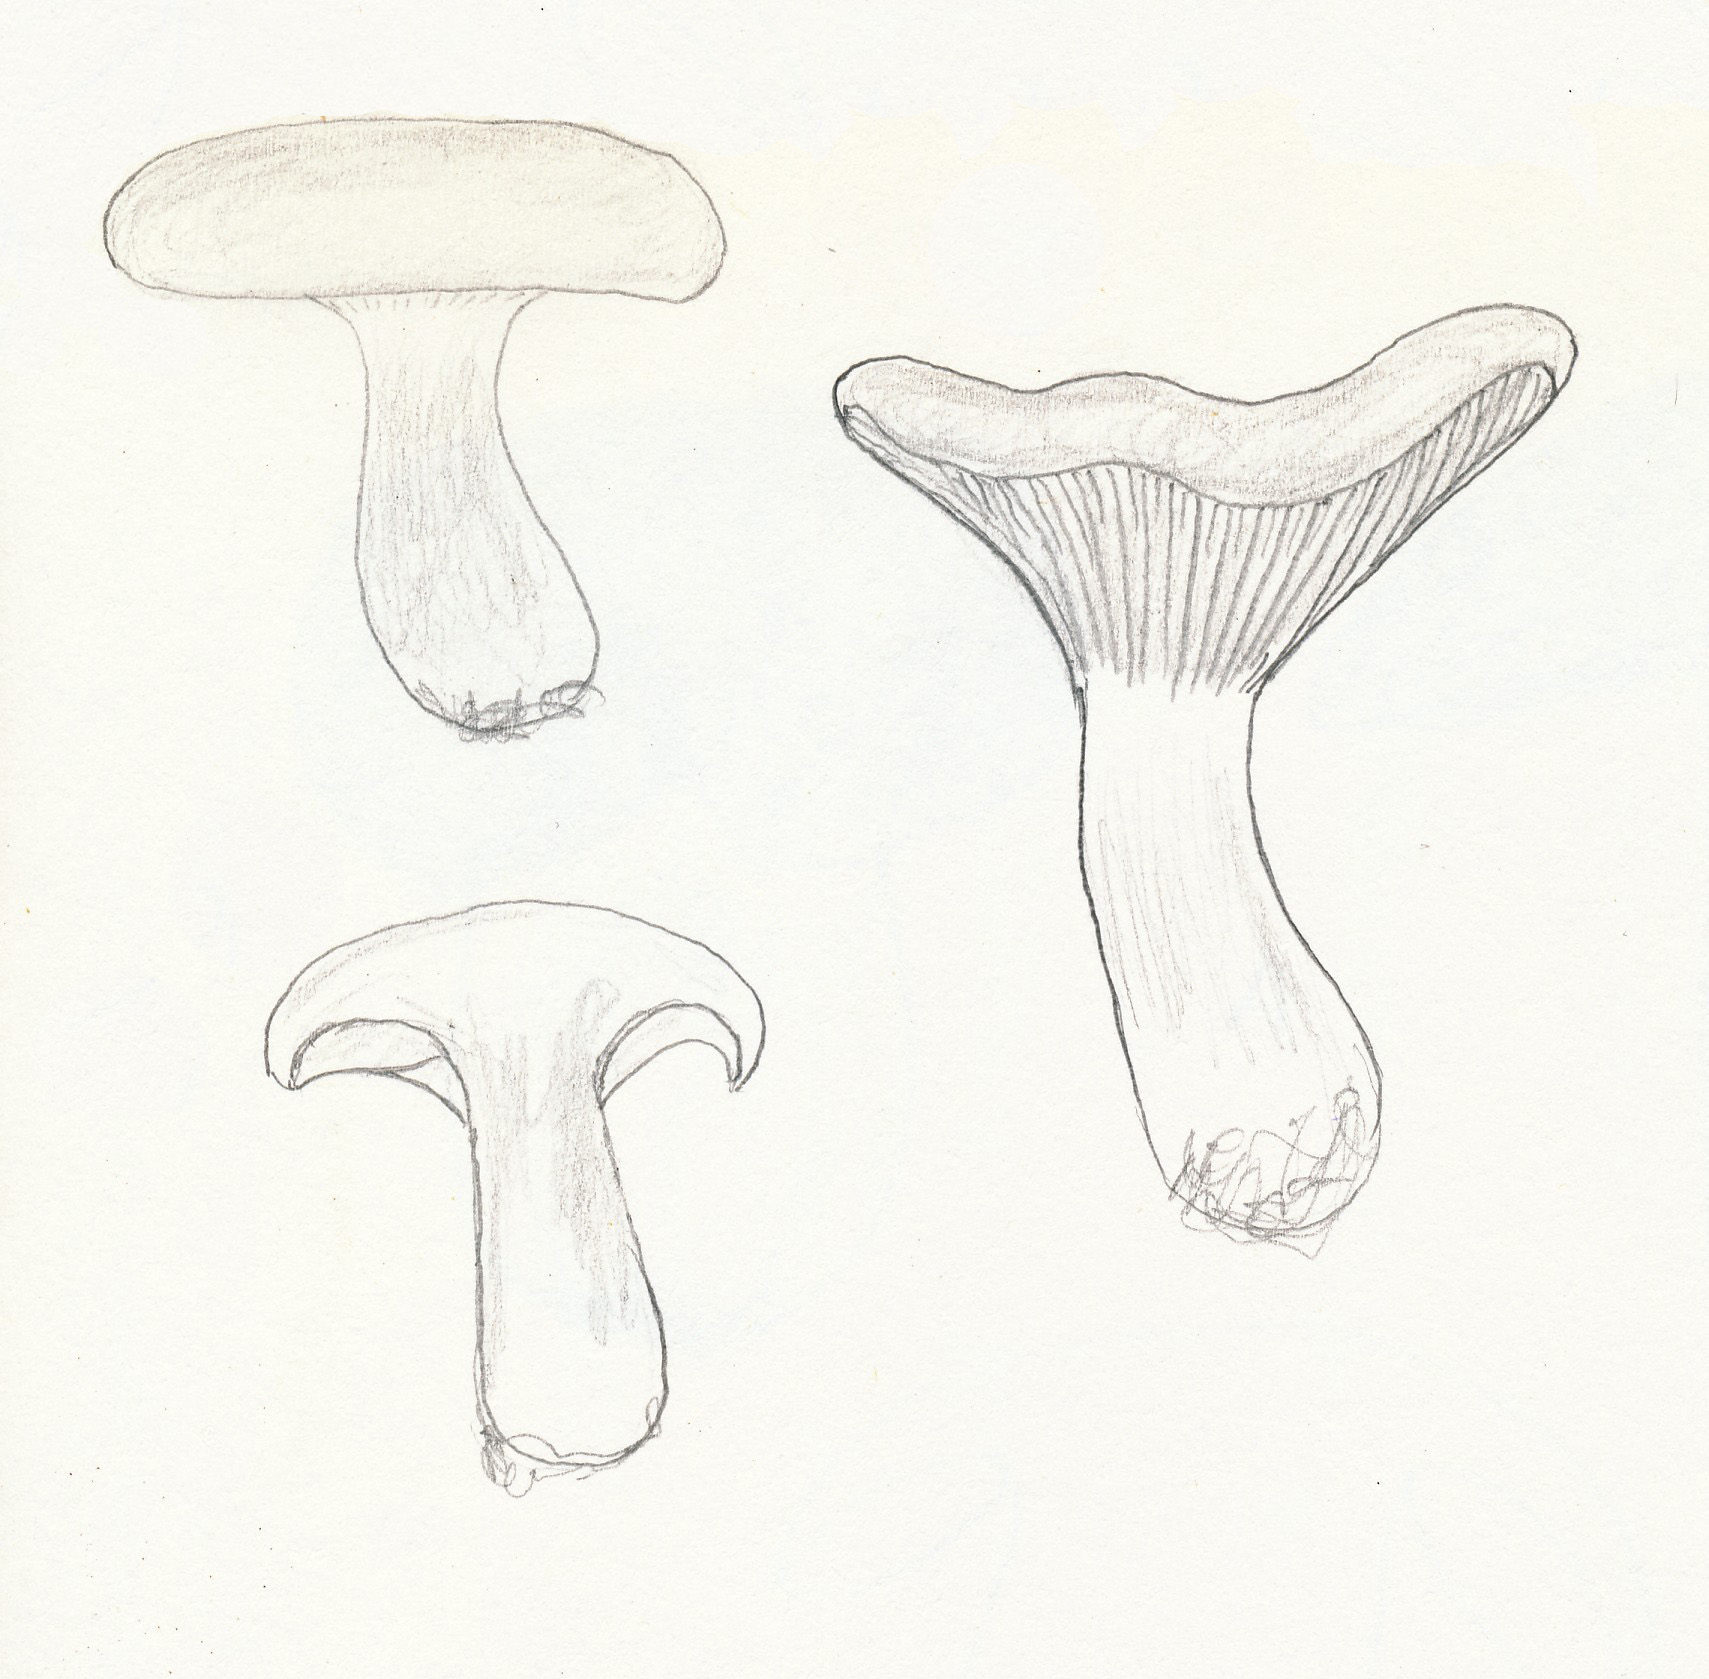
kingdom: Fungi
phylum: Basidiomycota
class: Agaricomycetes
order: Agaricales
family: Hydnangiaceae
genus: Laccaria
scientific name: Laccaria tortilis
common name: krybende ametysthat
